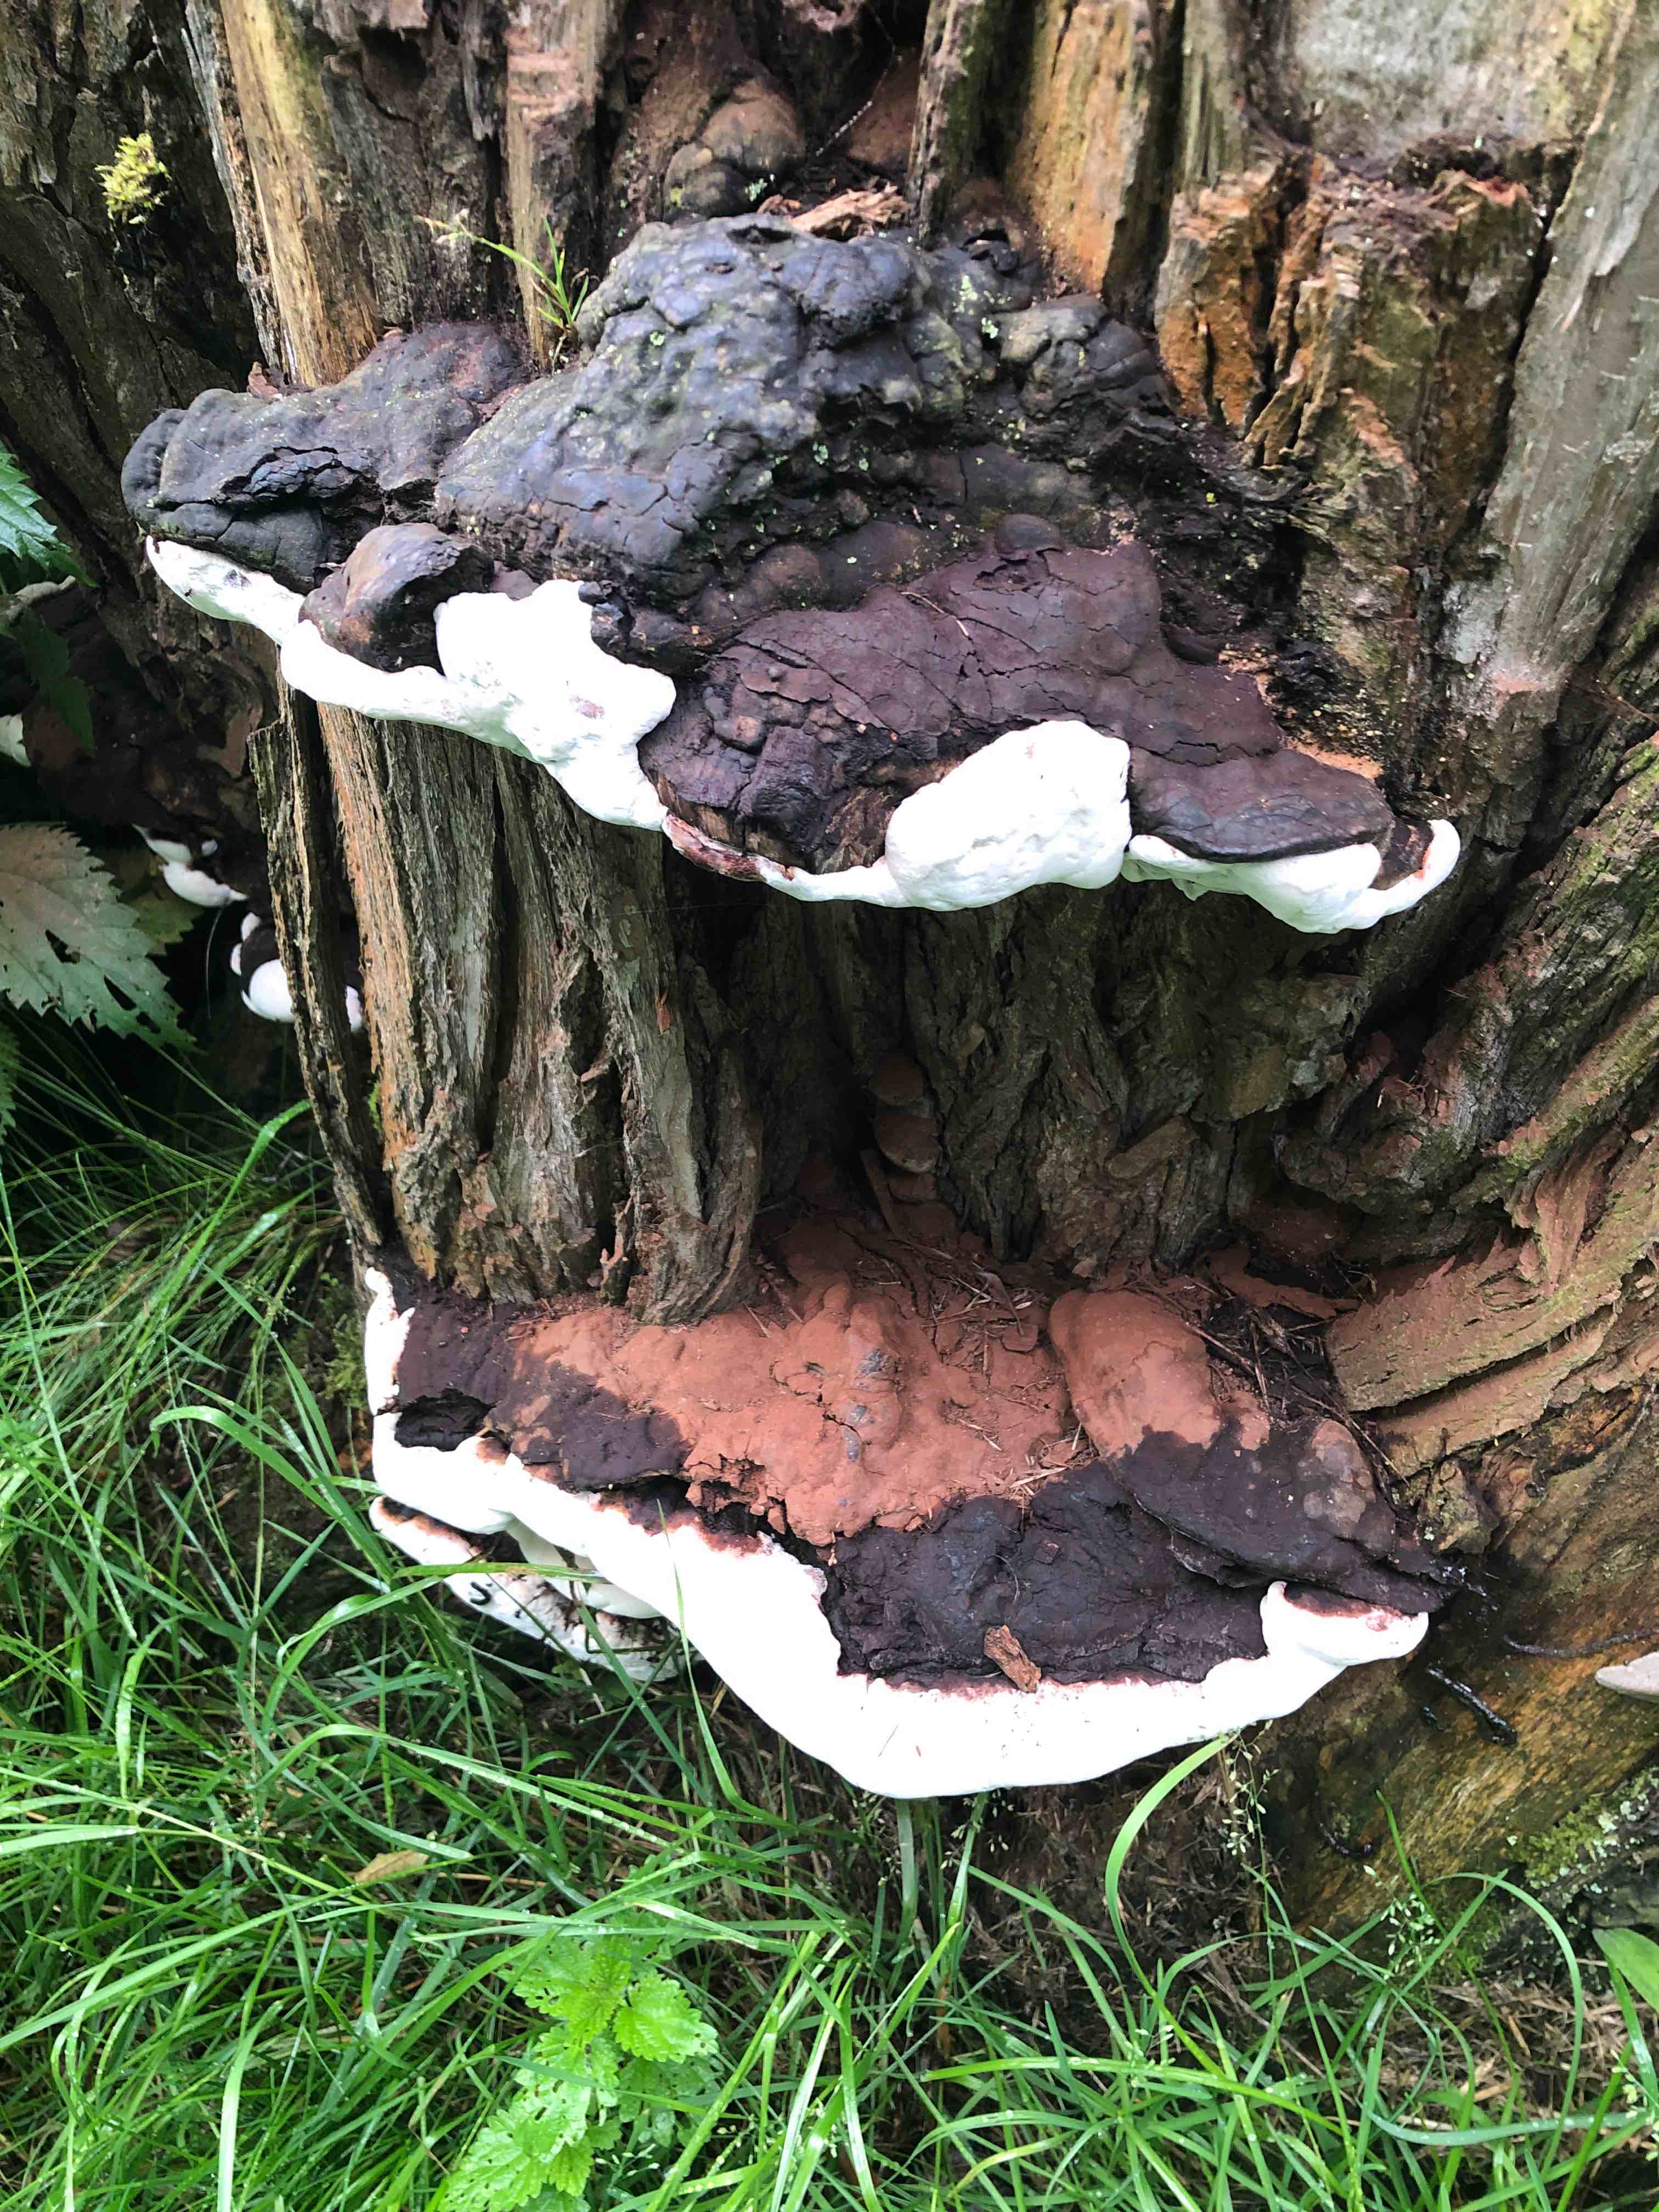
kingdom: Fungi
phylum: Basidiomycota
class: Agaricomycetes
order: Polyporales
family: Polyporaceae
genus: Ganoderma
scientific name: Ganoderma
